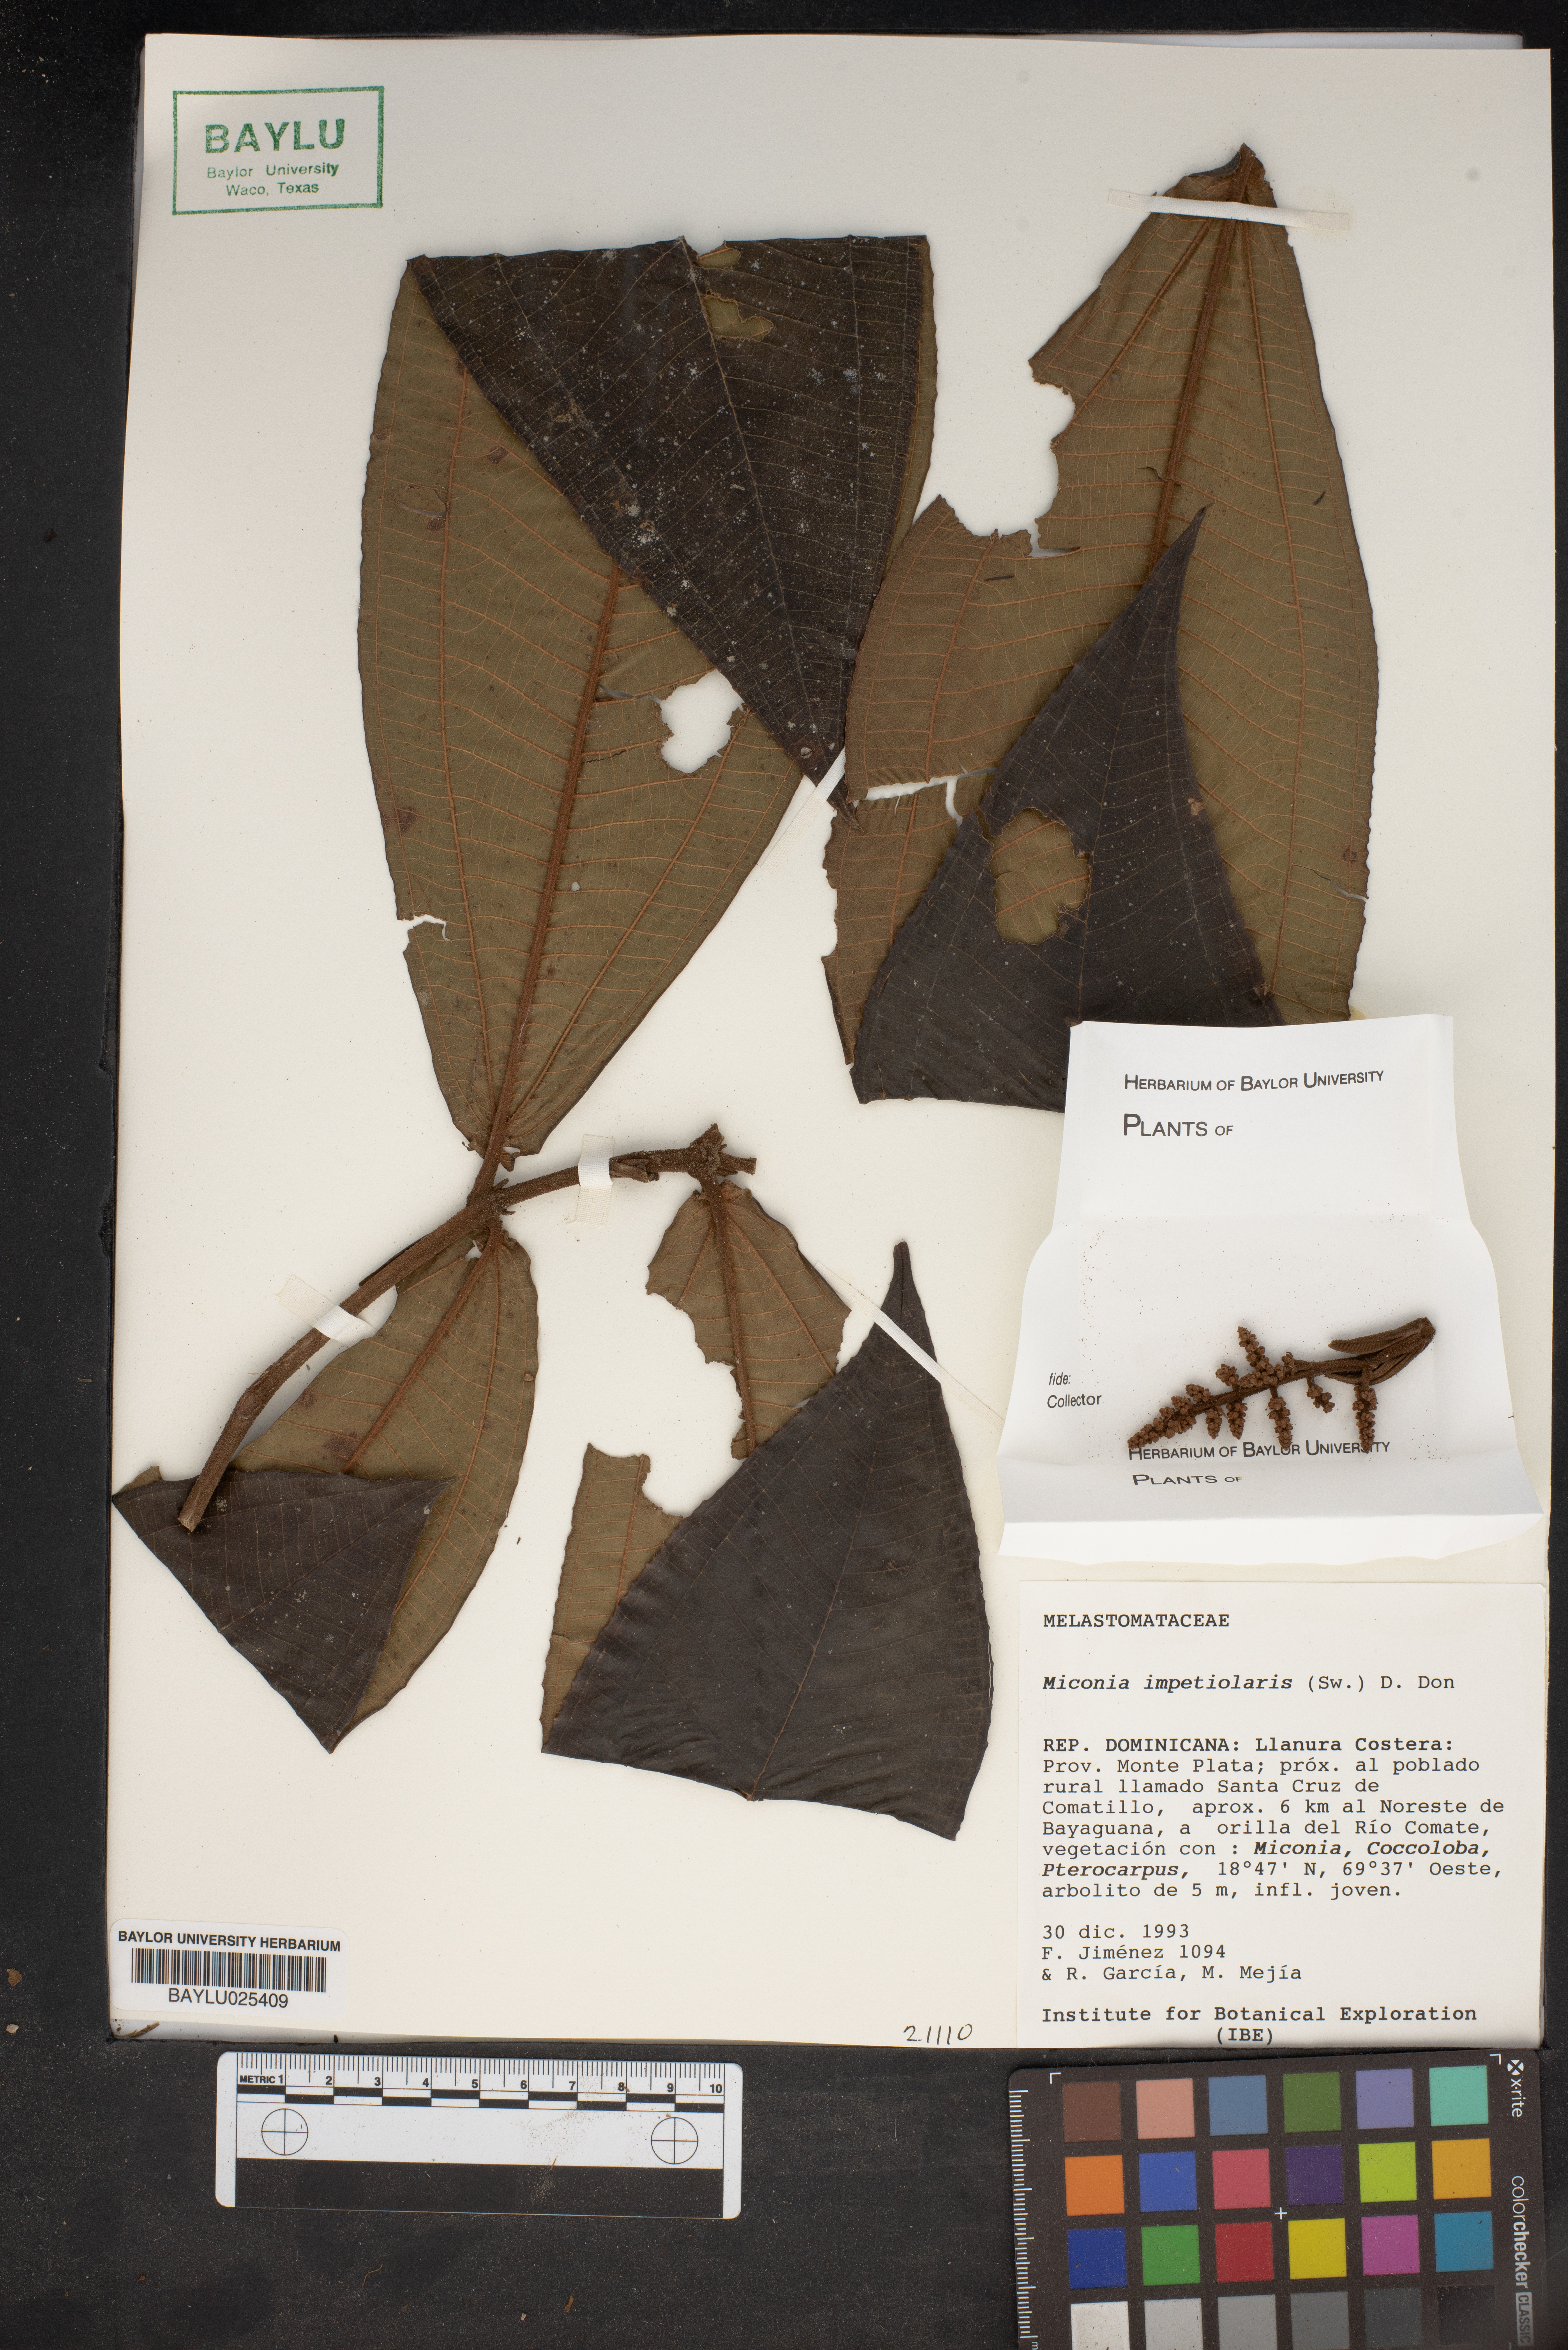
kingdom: Plantae
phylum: Tracheophyta
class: Magnoliopsida
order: Myrtales
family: Melastomataceae
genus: Miconia
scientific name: Miconia impetiolaris
